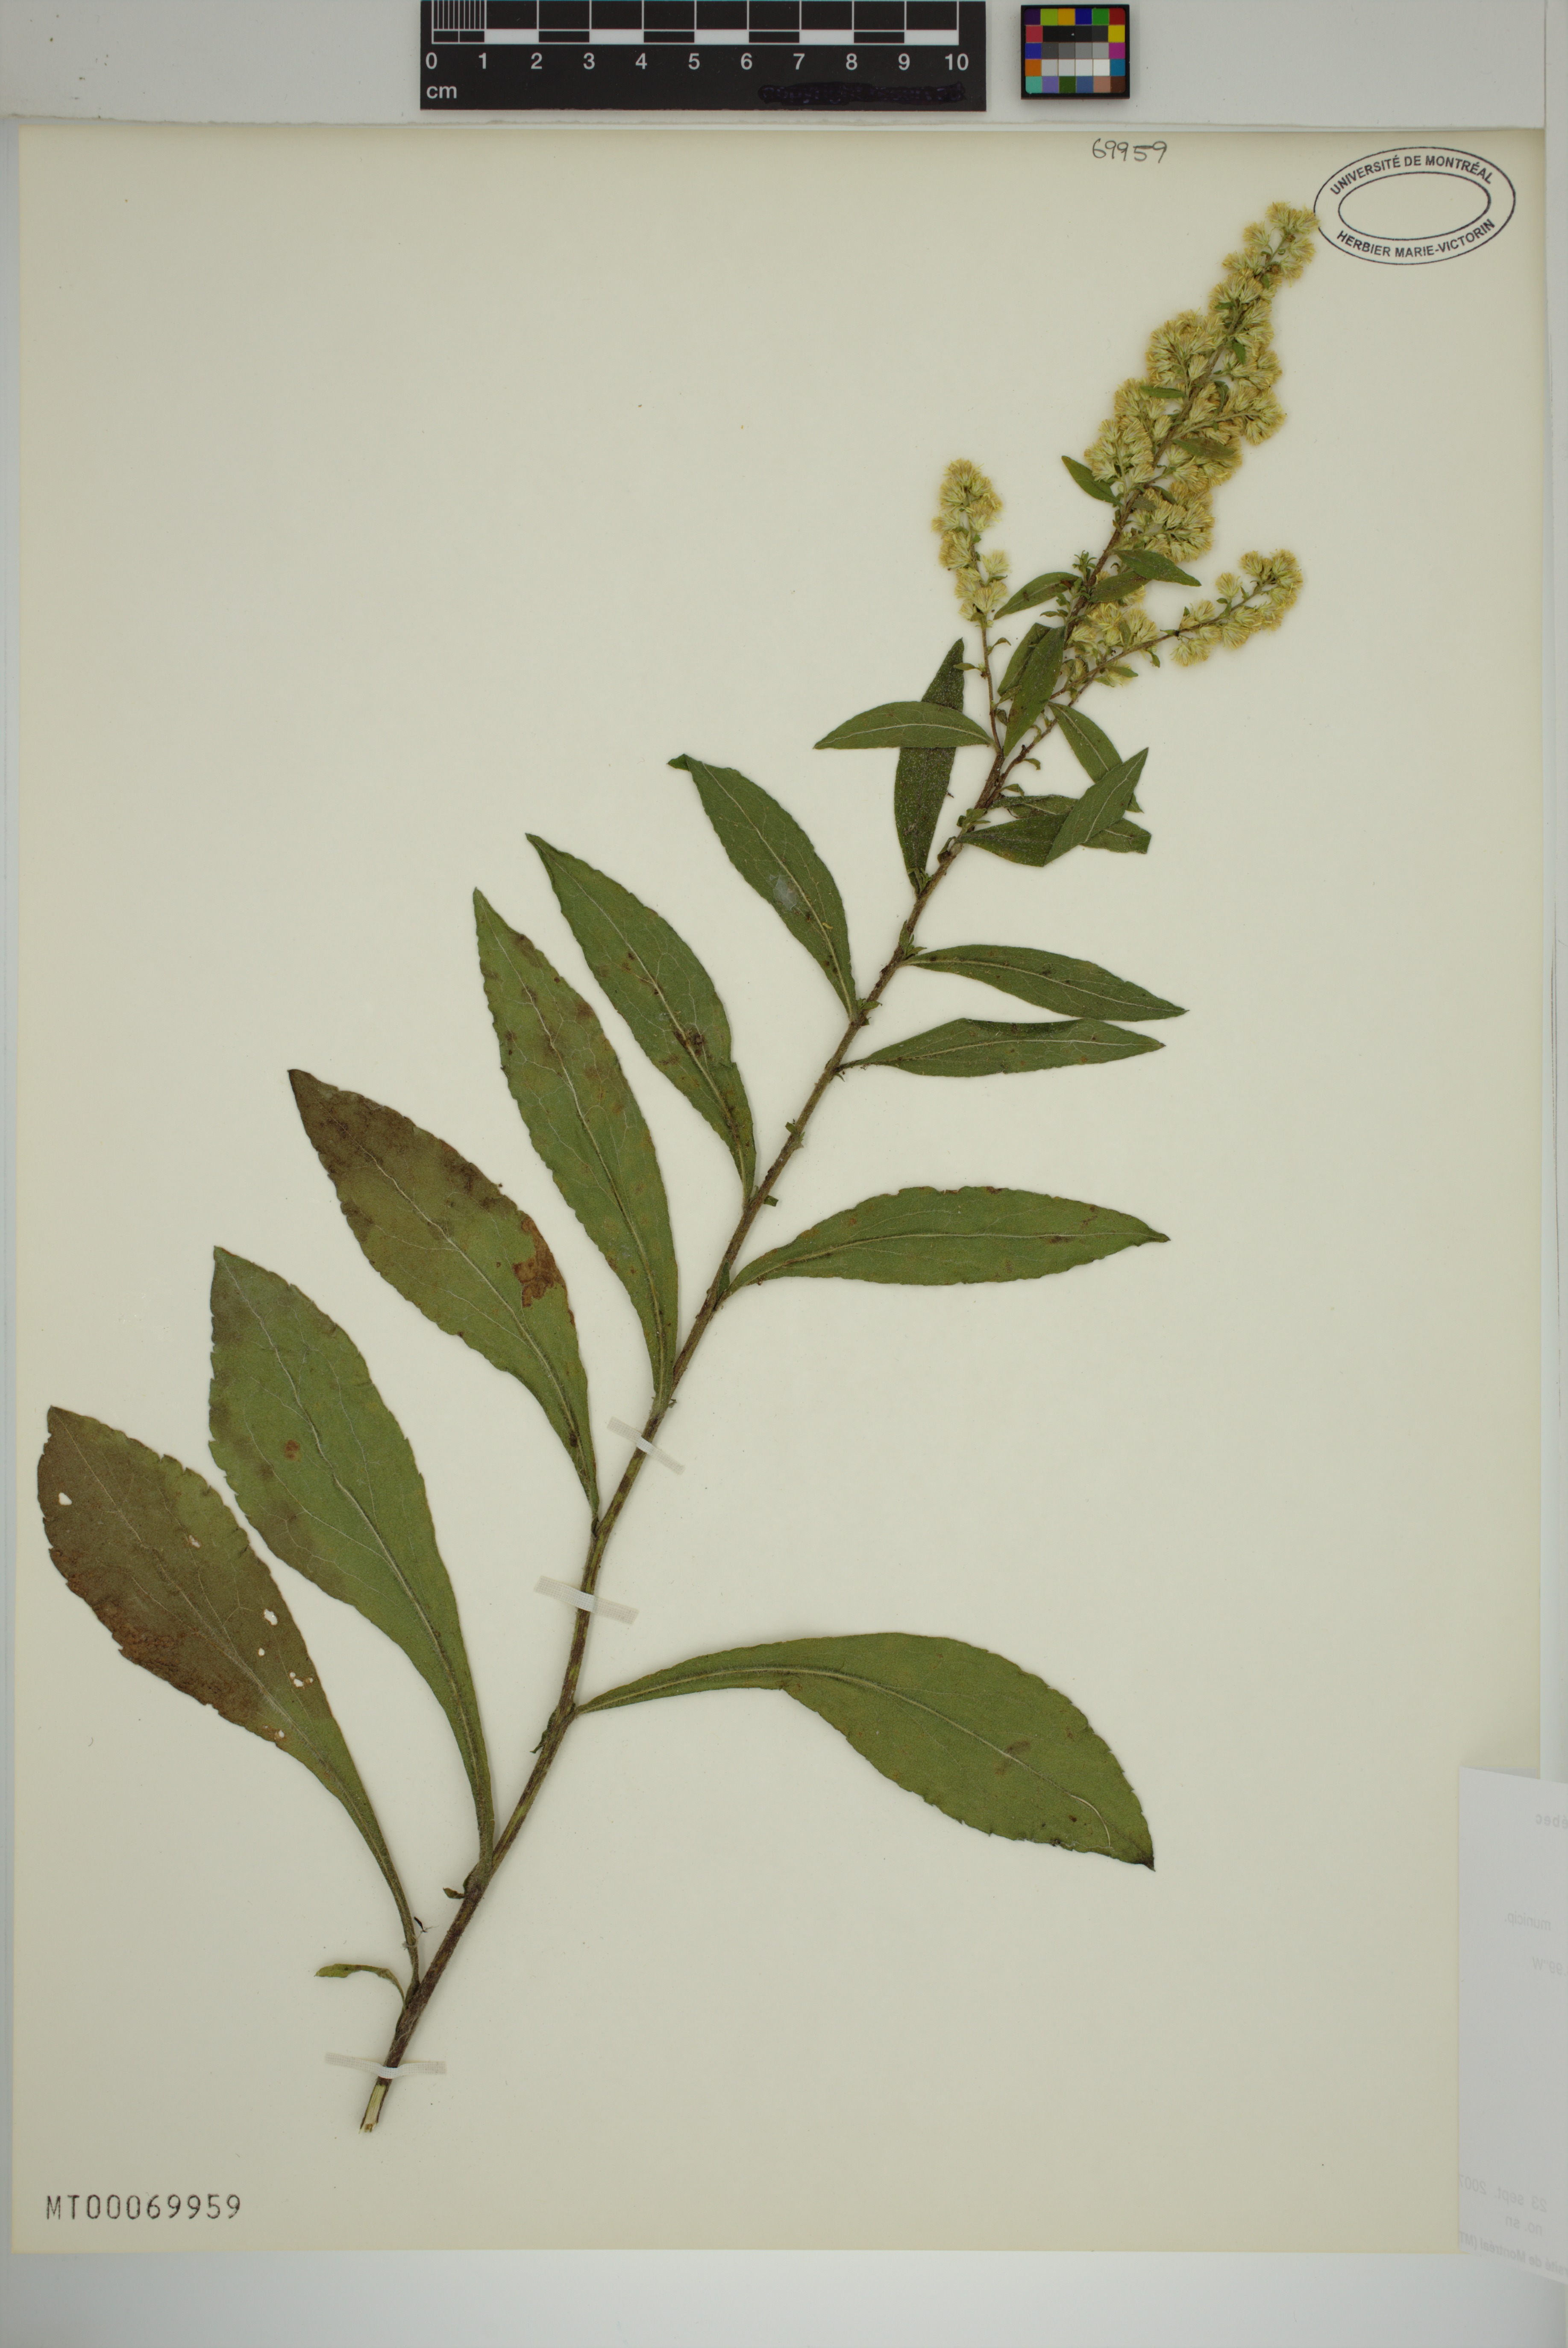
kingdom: Plantae
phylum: Tracheophyta
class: Magnoliopsida
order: Asterales
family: Asteraceae
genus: Solidago
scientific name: Solidago bicolor
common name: Silverrod
